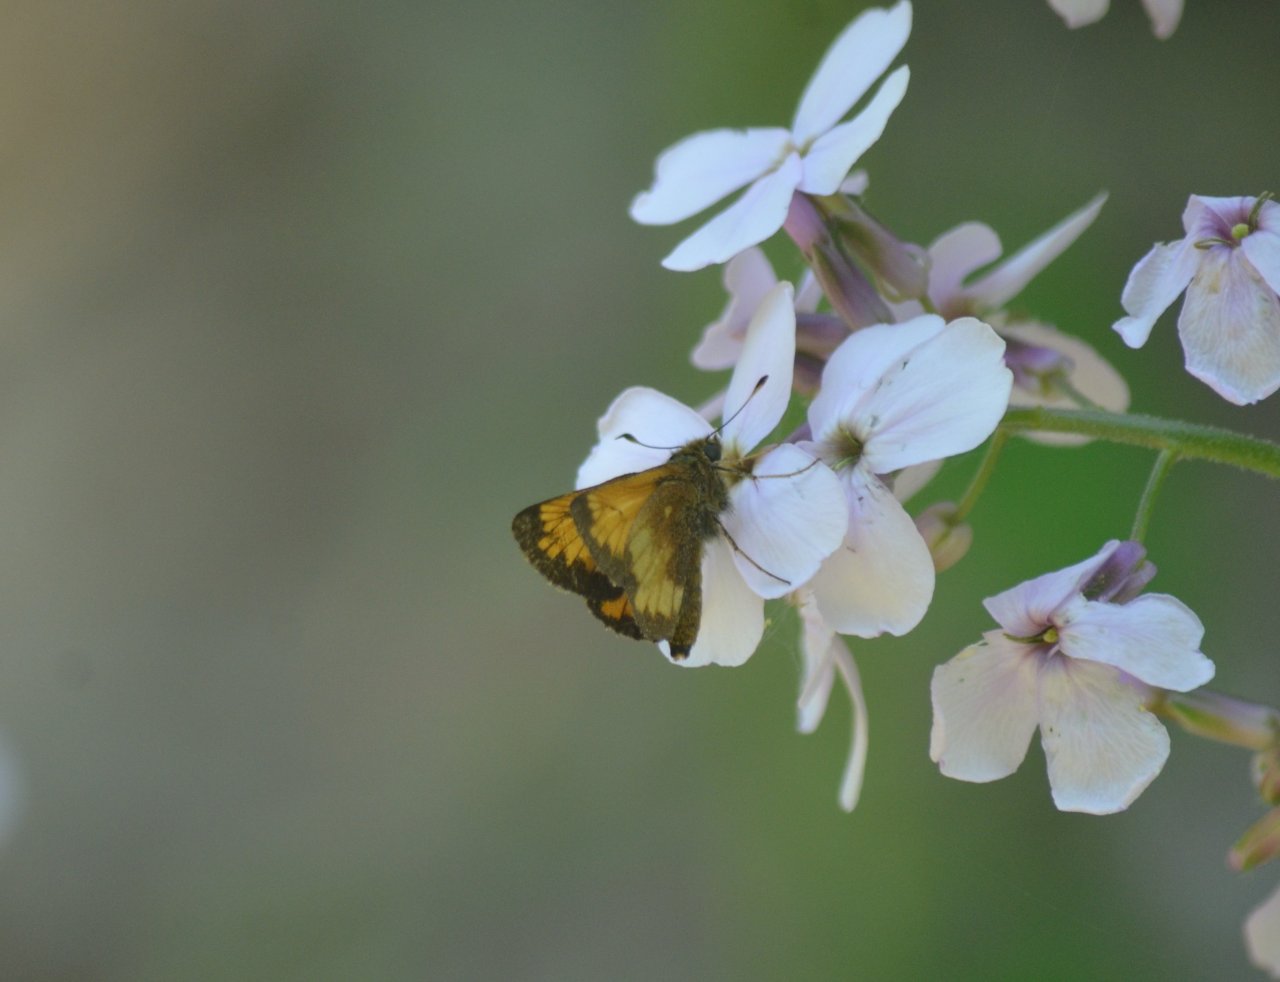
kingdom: Animalia
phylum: Arthropoda
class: Insecta
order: Lepidoptera
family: Hesperiidae
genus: Lon
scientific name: Lon hobomok
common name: Hobomok Skipper
